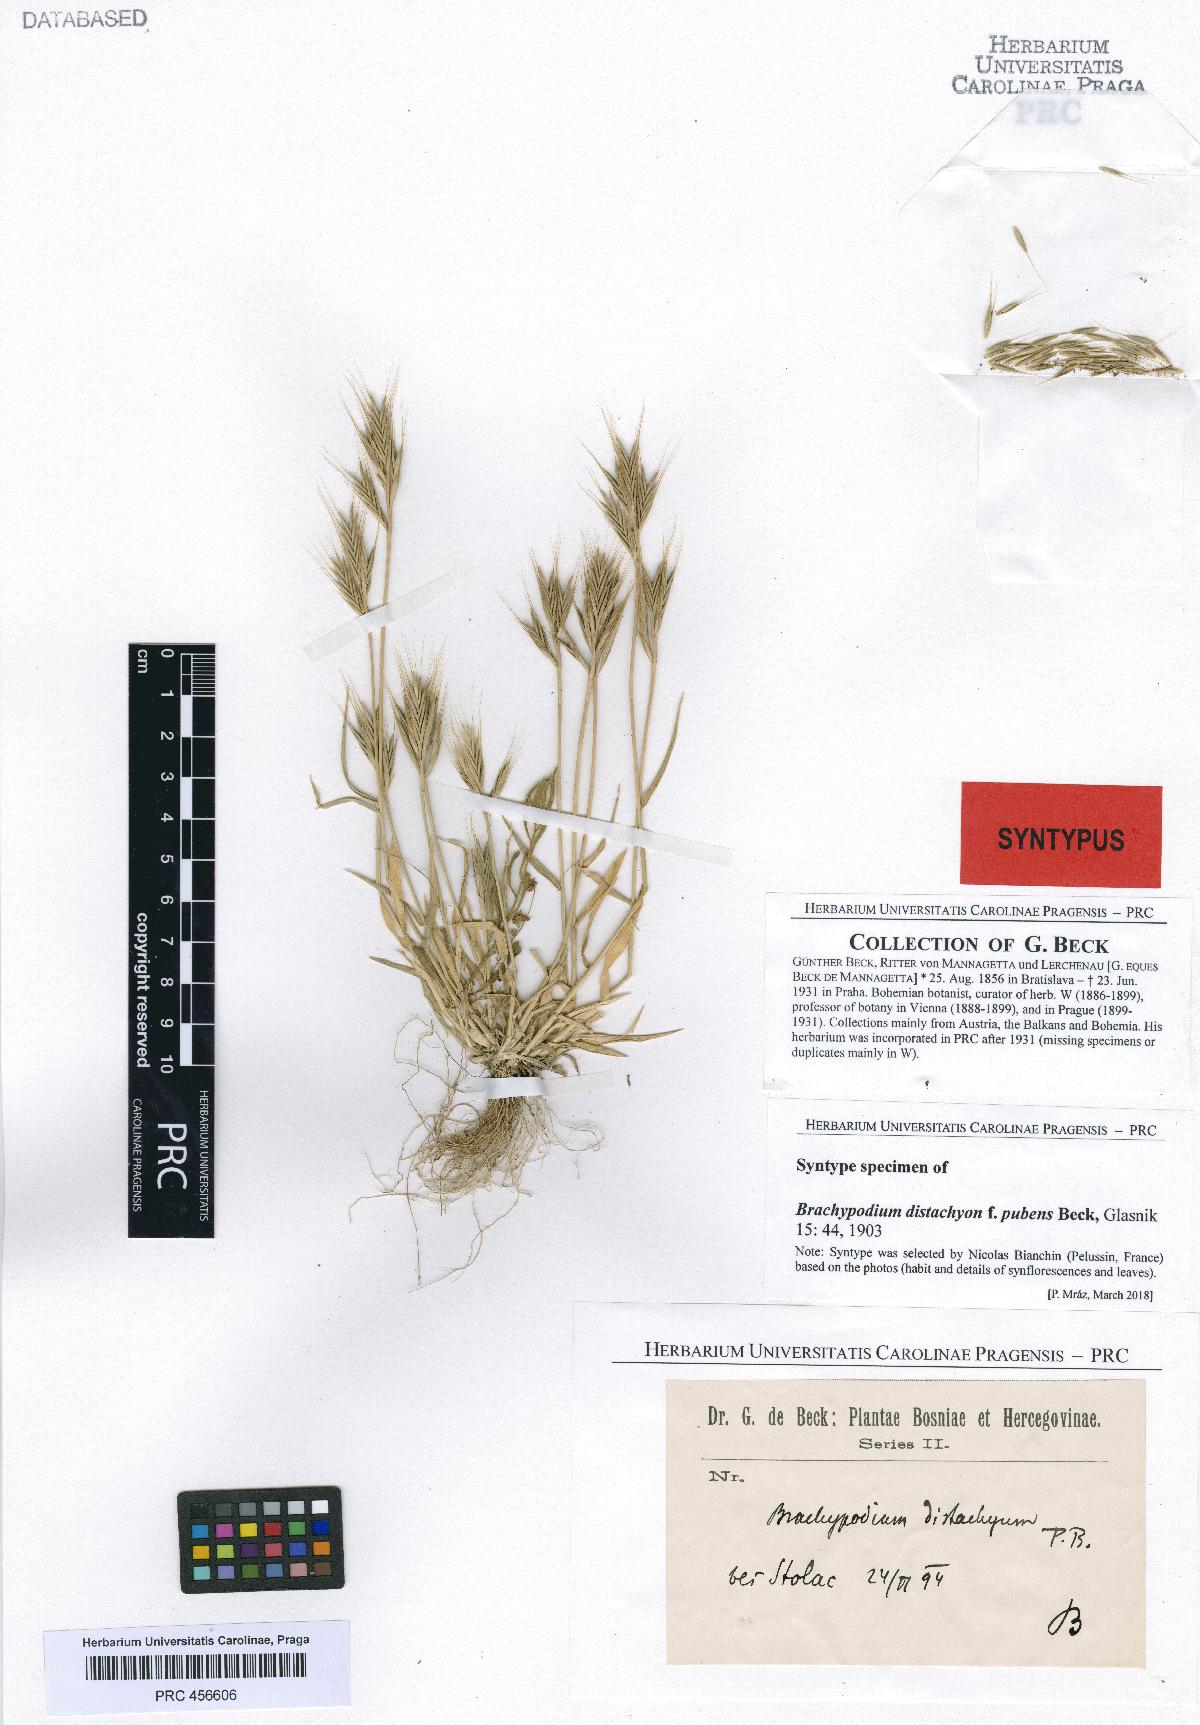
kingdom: Plantae
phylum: Tracheophyta
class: Liliopsida
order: Poales
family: Poaceae
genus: Brachypodium
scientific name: Brachypodium distachyon
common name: Stiff brome
